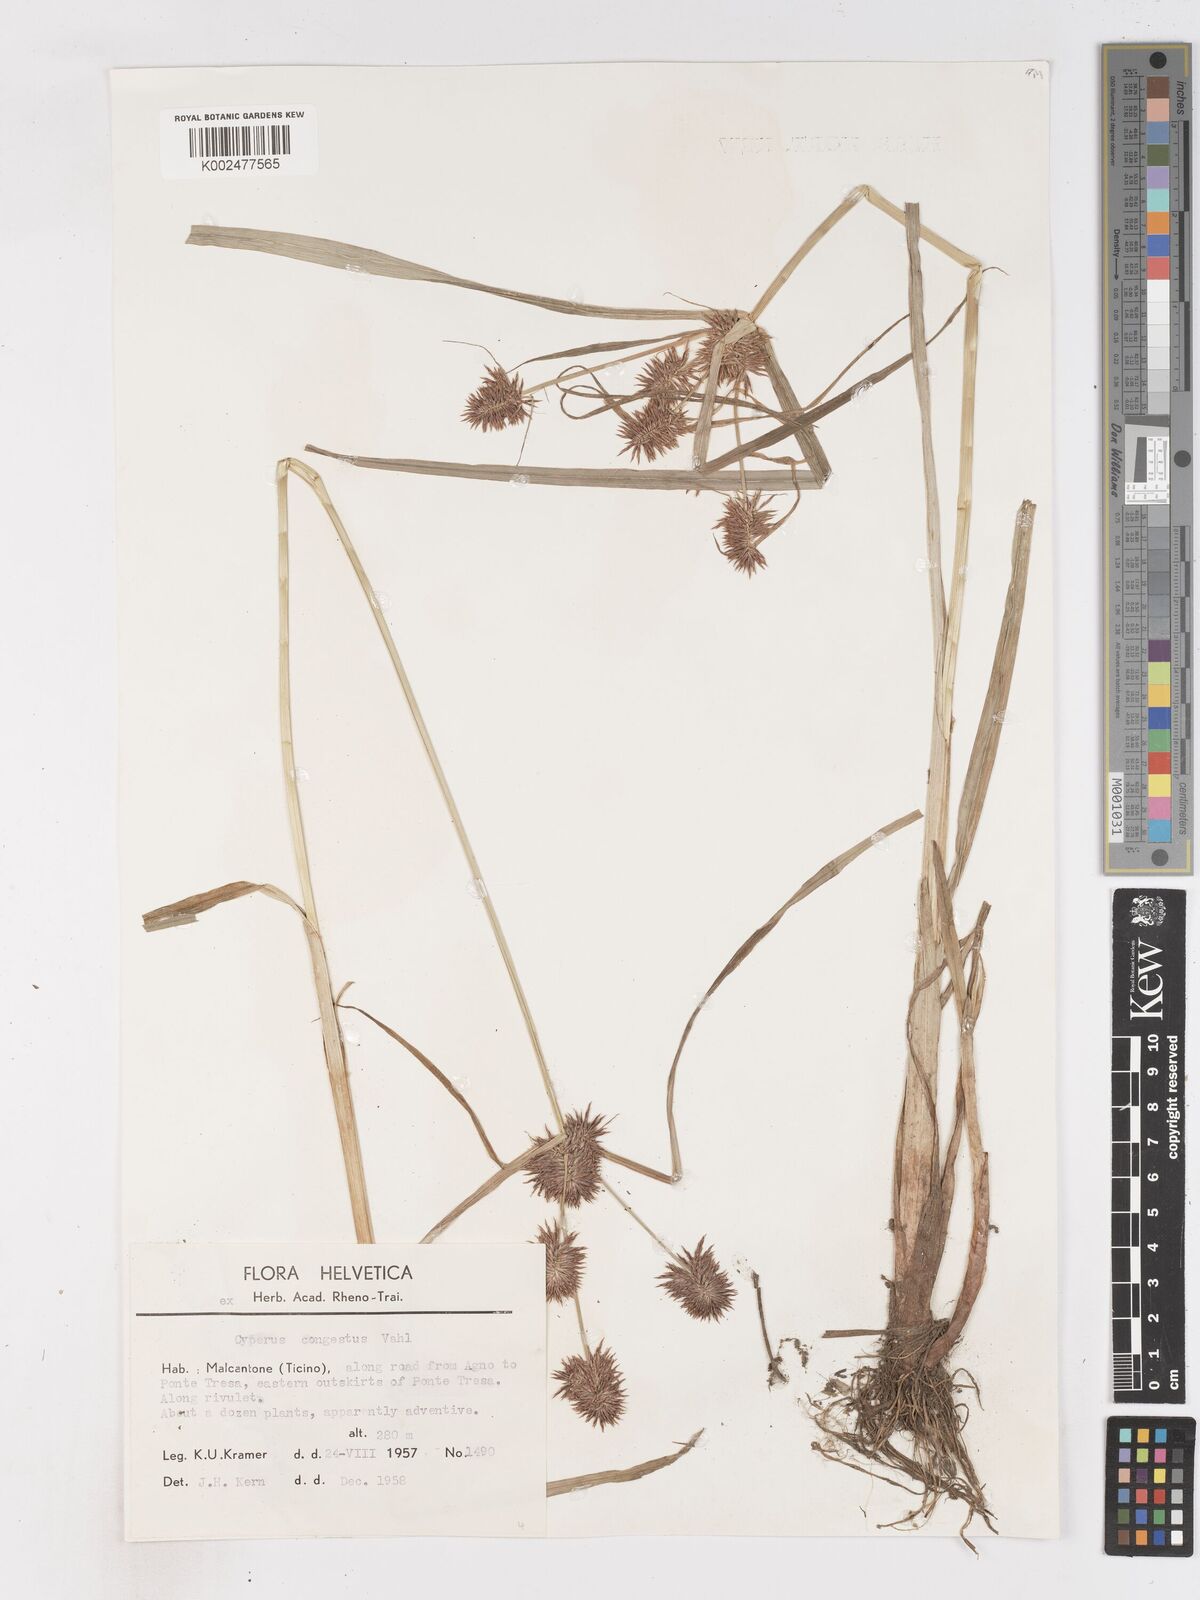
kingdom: Plantae
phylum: Tracheophyta
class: Liliopsida
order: Poales
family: Cyperaceae
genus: Cyperus
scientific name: Cyperus congestus
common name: Dense flat sedge
